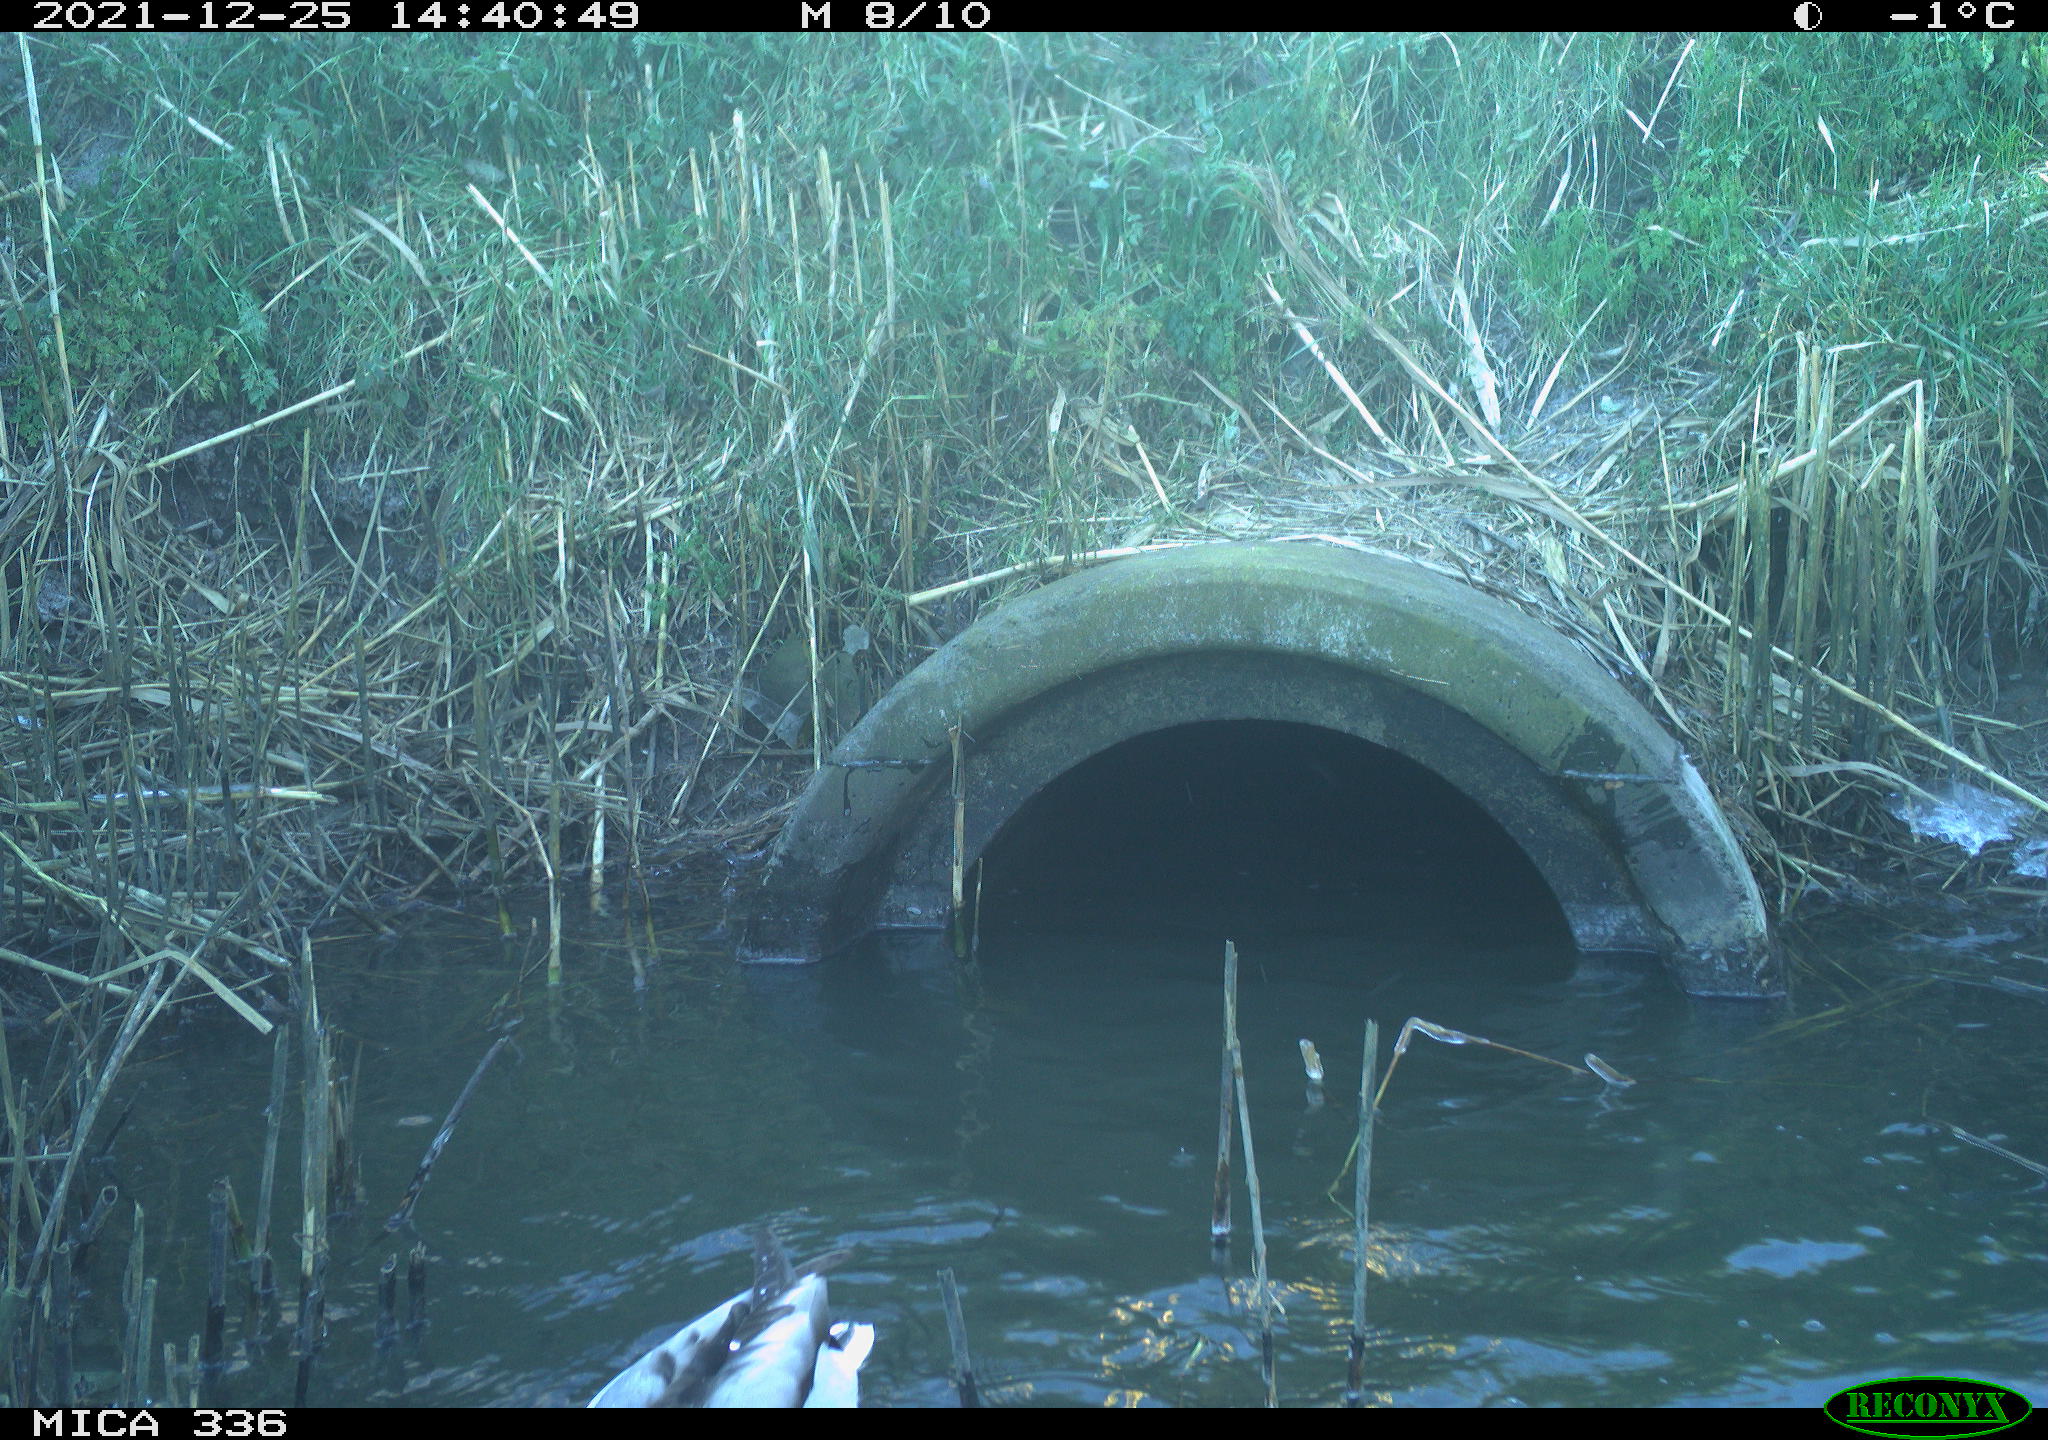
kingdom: Animalia
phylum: Chordata
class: Aves
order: Anseriformes
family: Anatidae
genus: Anas
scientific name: Anas platyrhynchos
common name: Mallard
